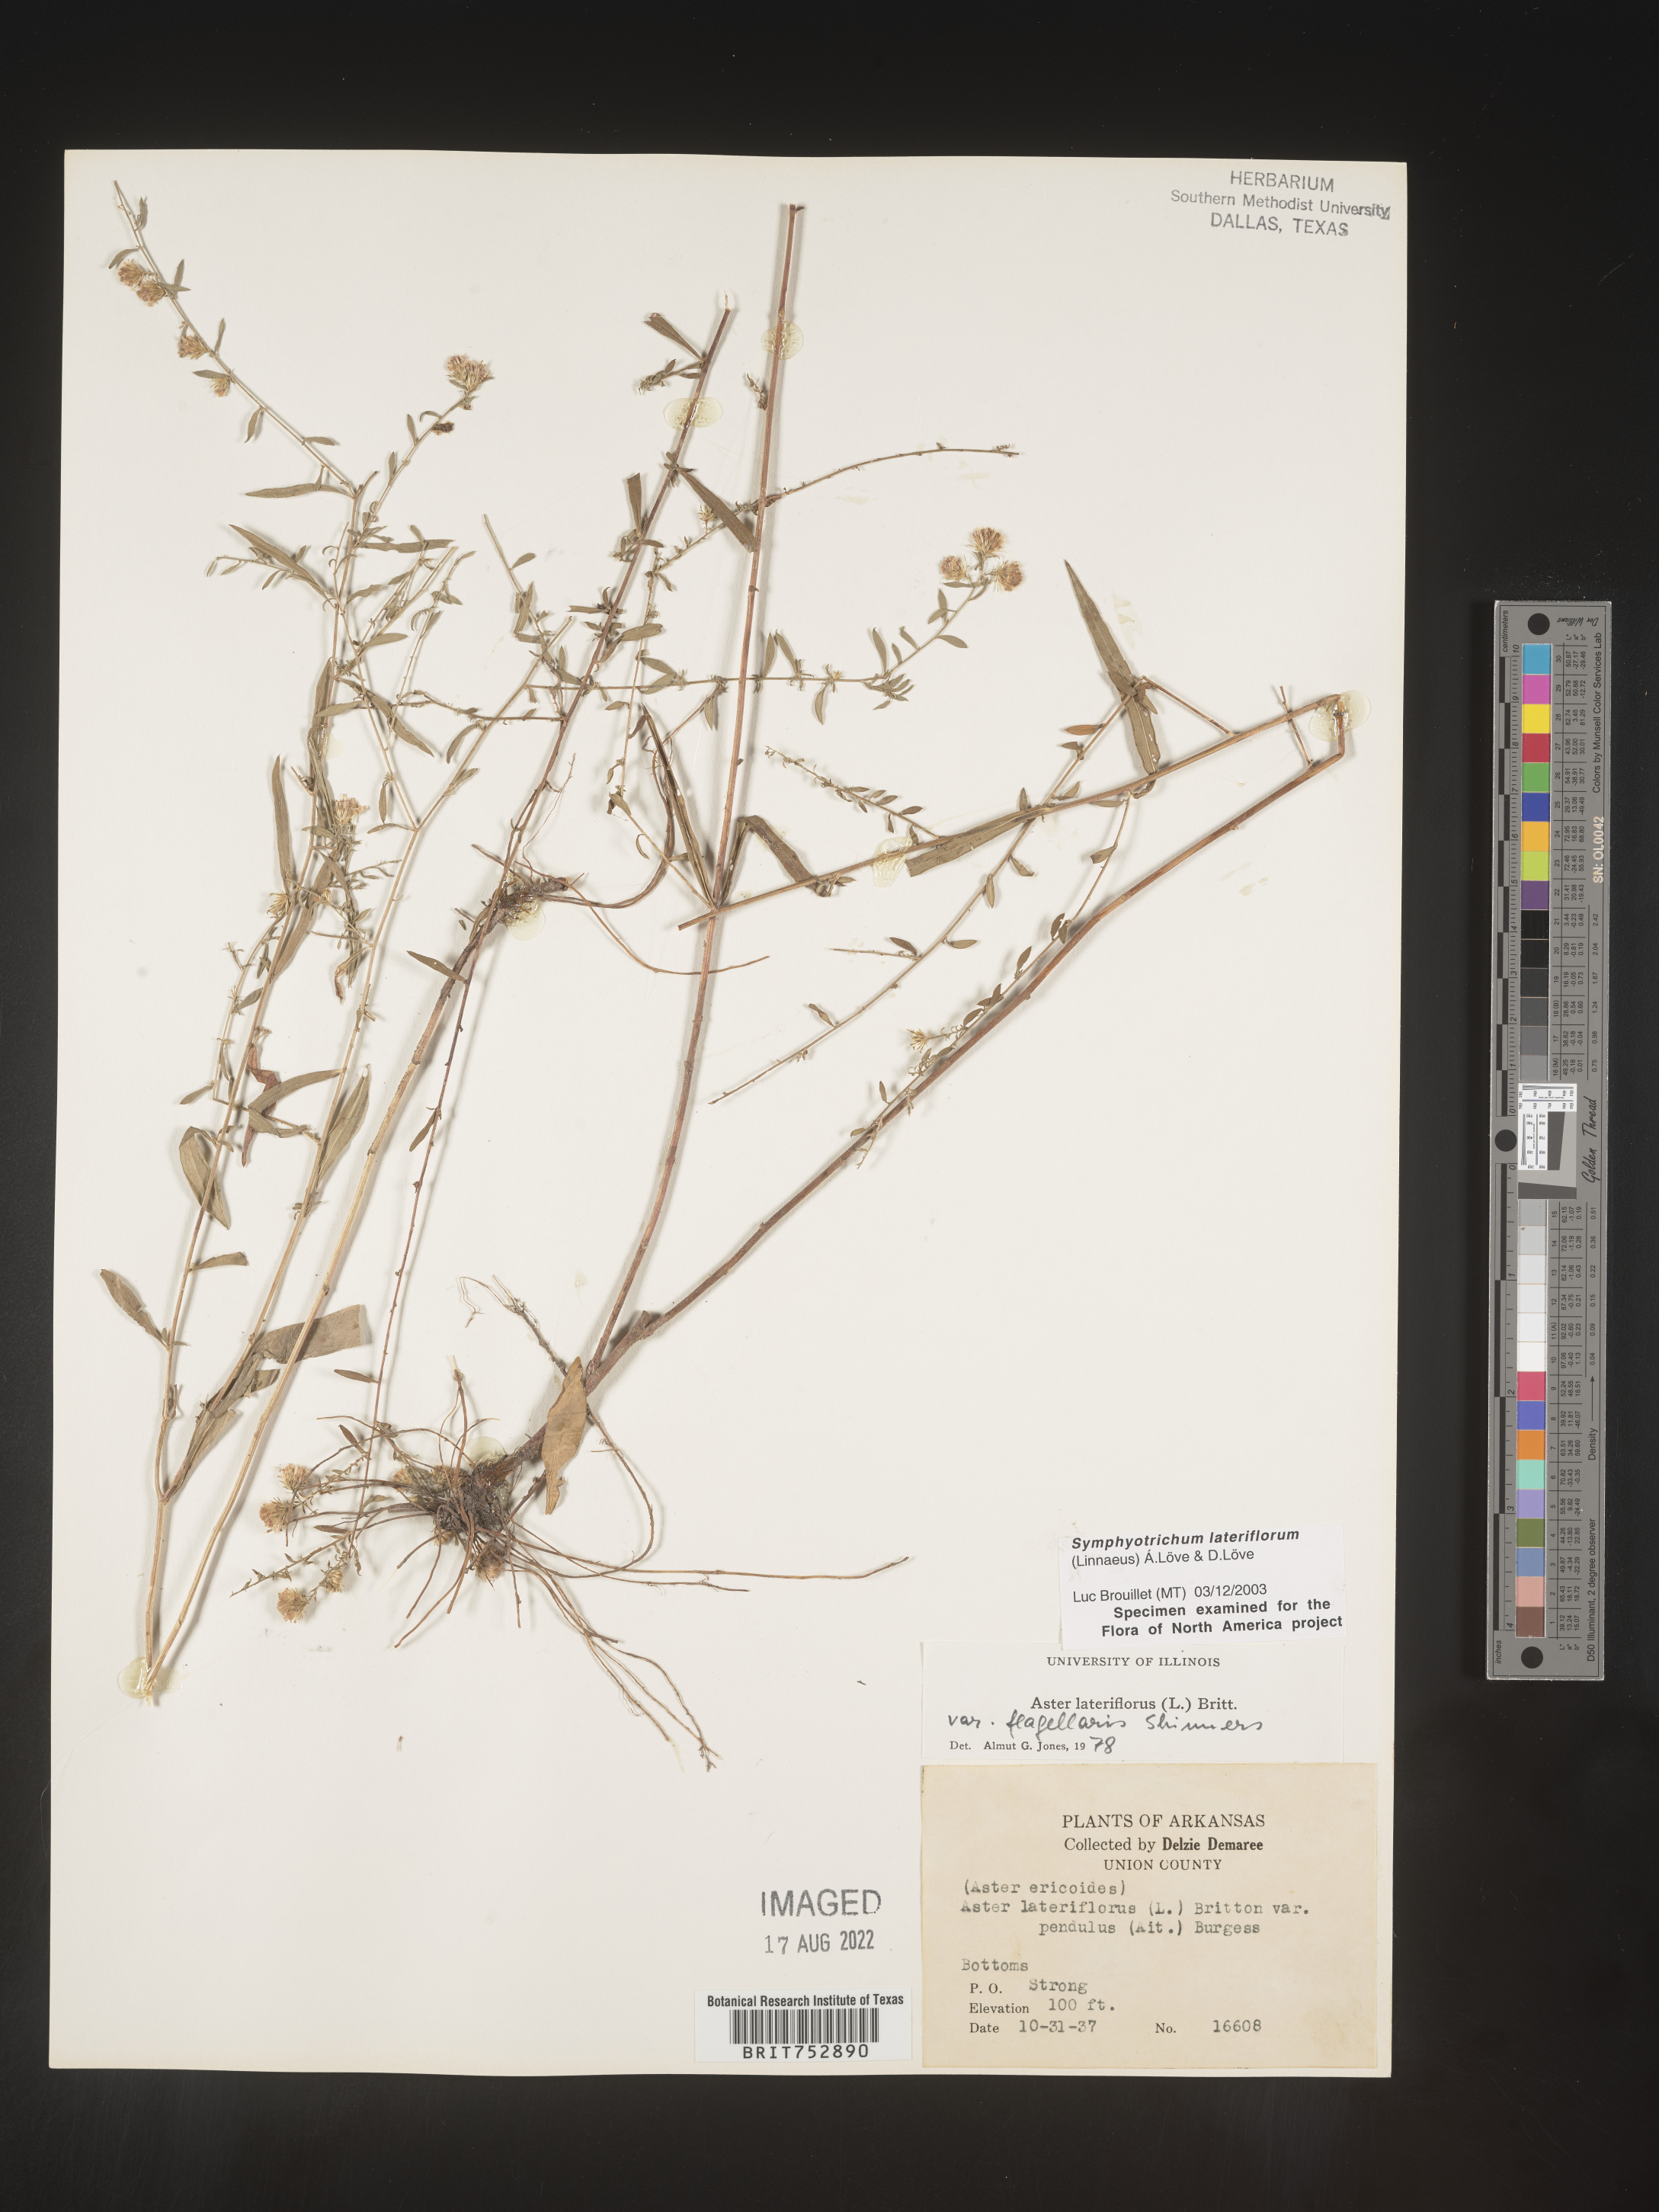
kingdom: Plantae
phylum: Tracheophyta
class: Magnoliopsida
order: Asterales
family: Asteraceae
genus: Symphyotrichum
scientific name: Symphyotrichum lateriflorum
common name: Calico aster
